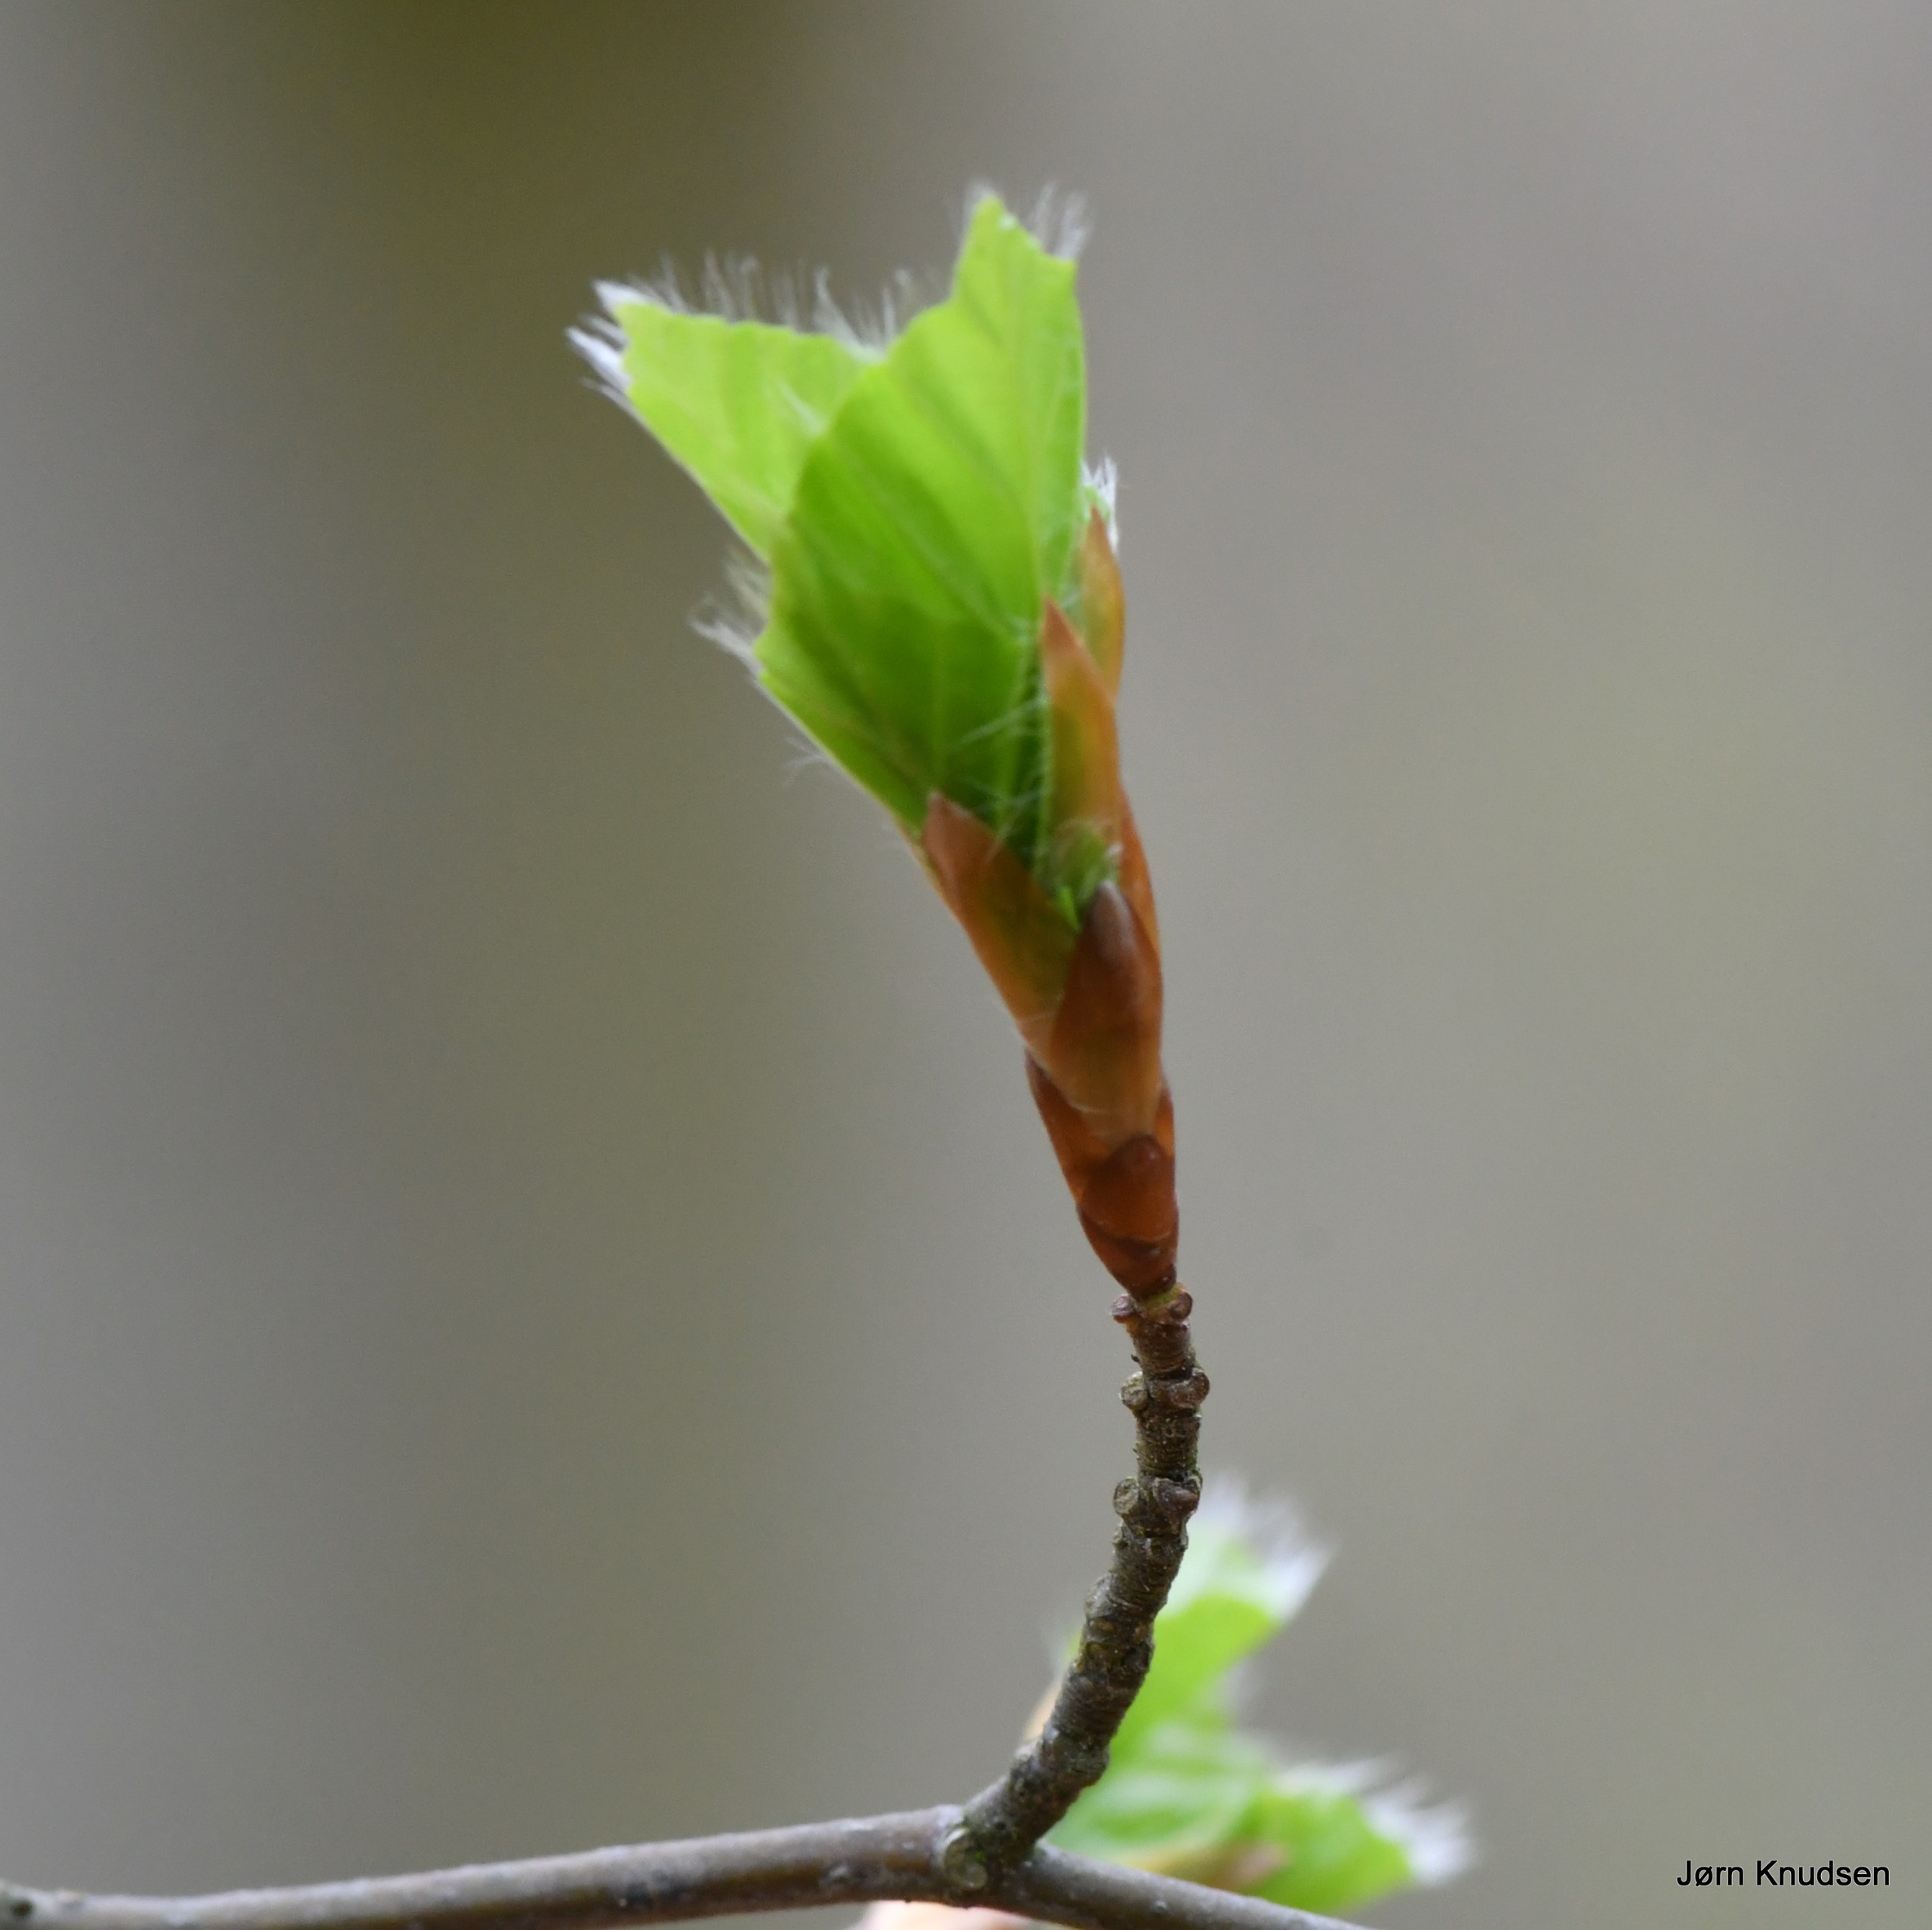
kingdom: Plantae
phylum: Tracheophyta
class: Magnoliopsida
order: Fagales
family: Fagaceae
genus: Fagus
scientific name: Fagus sylvatica
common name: Bøg
